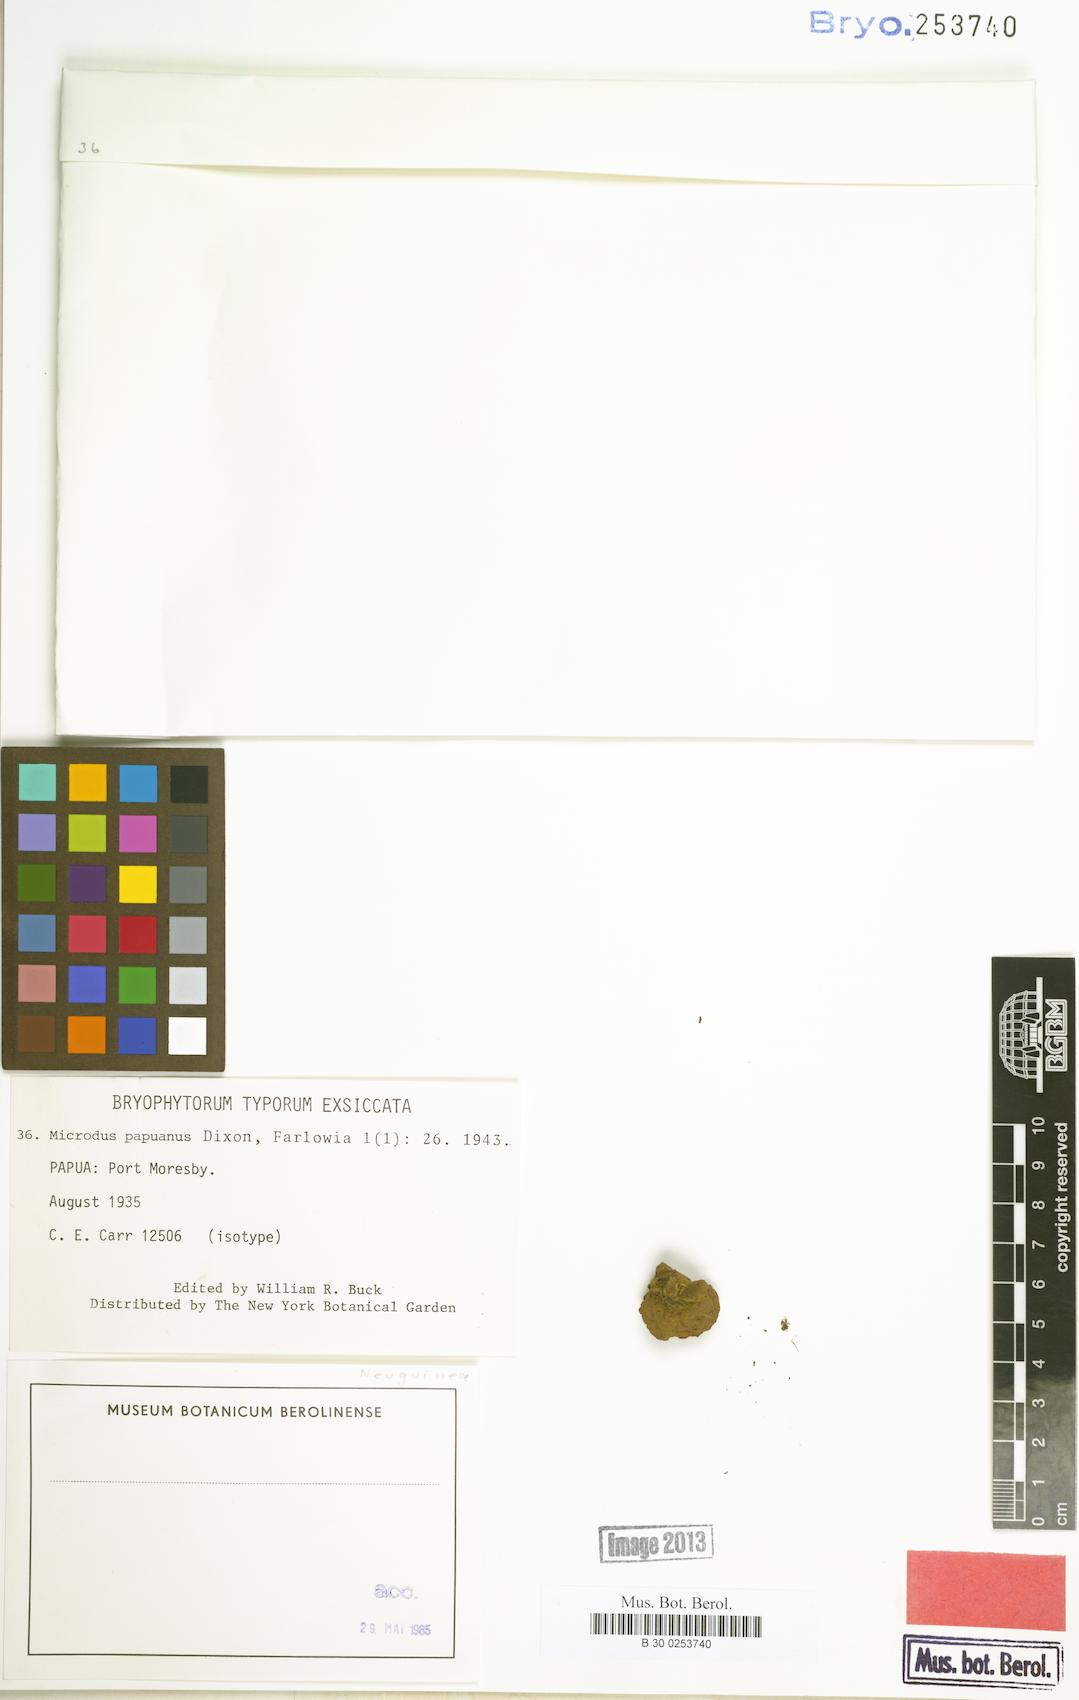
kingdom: Plantae
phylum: Bryophyta
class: Bryopsida
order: Dicranales
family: Dicranellaceae
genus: Leptotrichella
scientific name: Leptotrichella miqueliana
